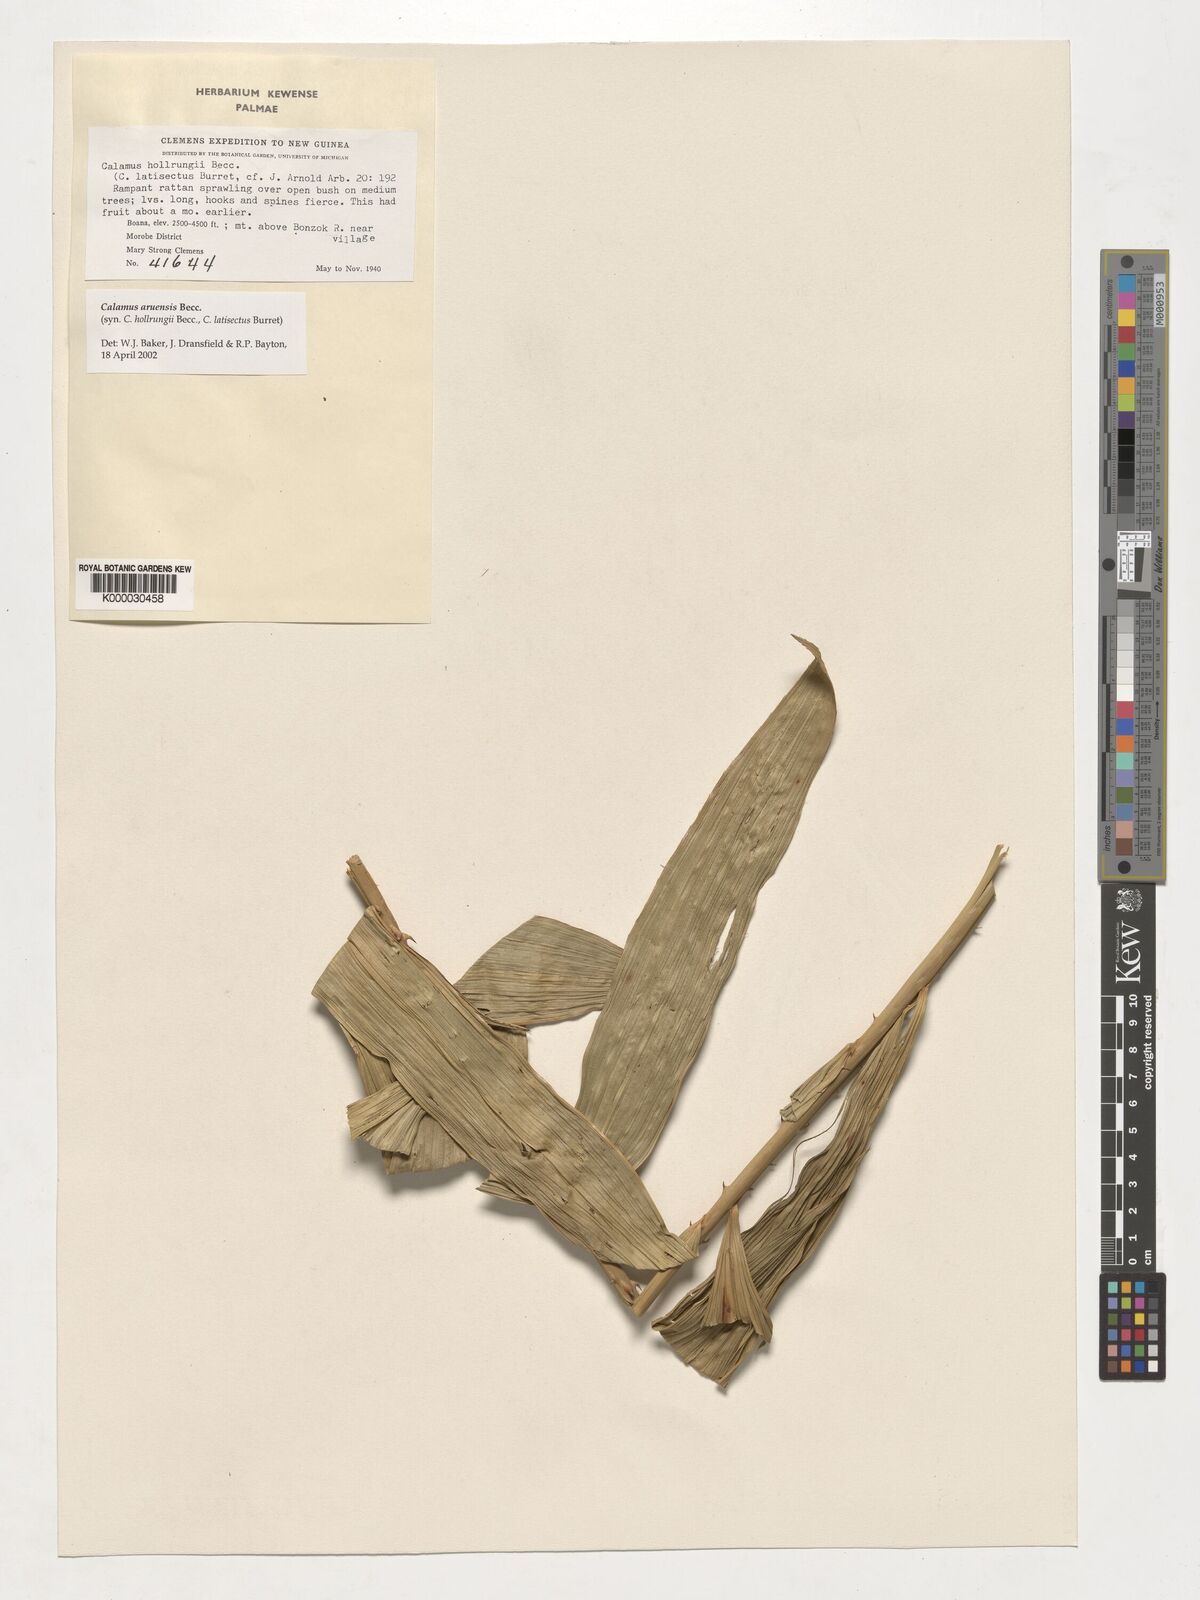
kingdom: Plantae
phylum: Tracheophyta
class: Liliopsida
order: Arecales
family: Arecaceae
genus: Calamus
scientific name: Calamus aruensis
